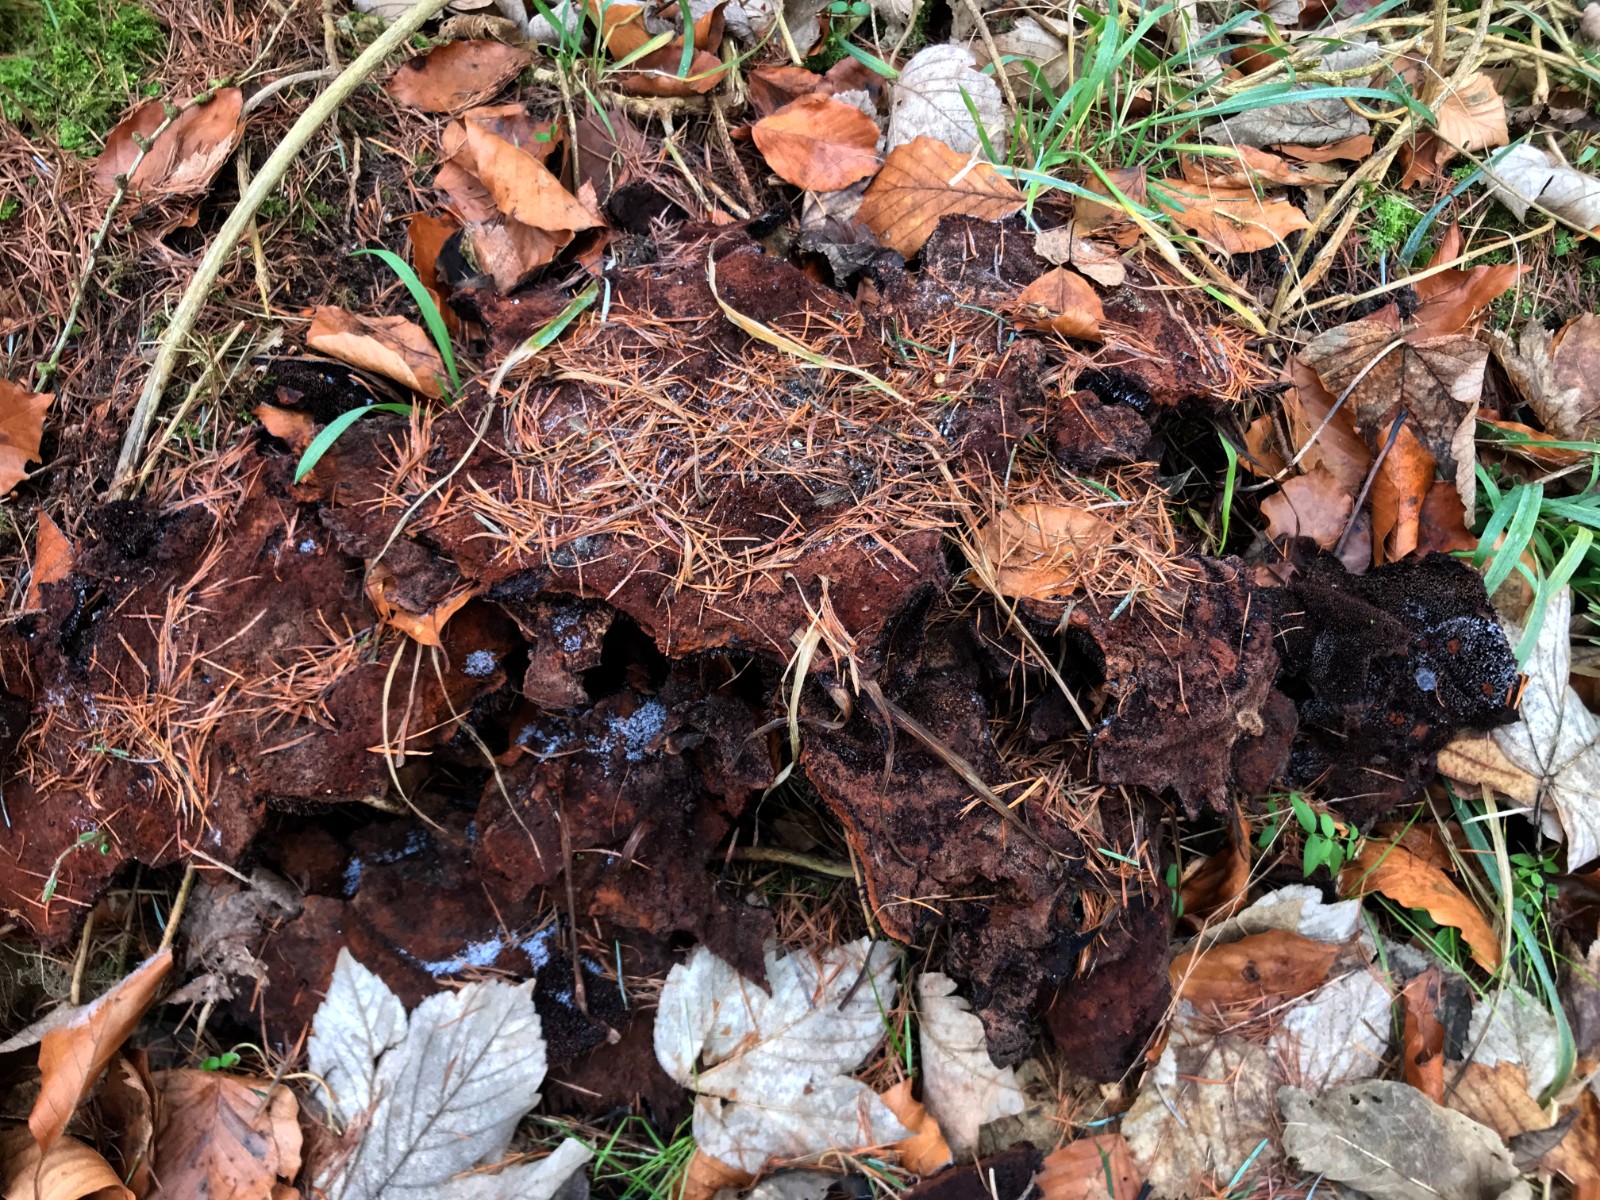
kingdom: Fungi
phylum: Basidiomycota
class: Agaricomycetes
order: Polyporales
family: Laetiporaceae
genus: Phaeolus
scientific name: Phaeolus schweinitzii
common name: brunporesvamp
